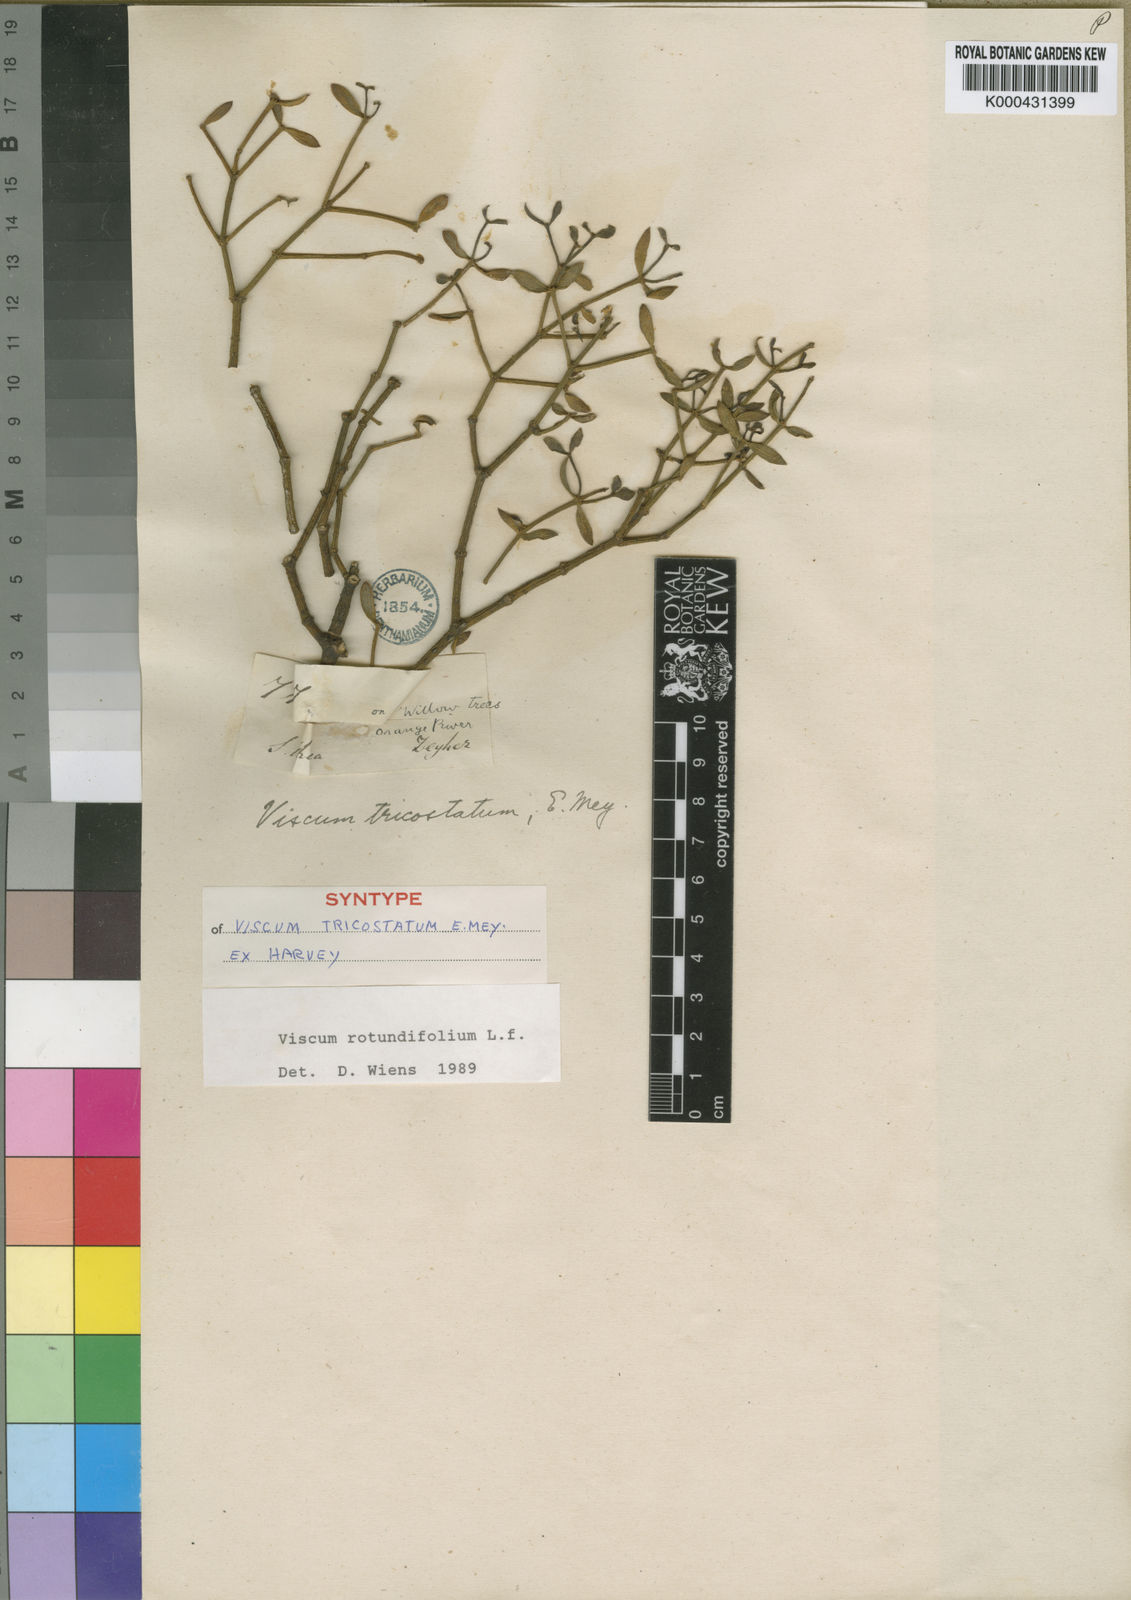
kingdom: Plantae
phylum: Tracheophyta
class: Magnoliopsida
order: Santalales
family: Viscaceae
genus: Viscum
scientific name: Viscum rotundifolium
